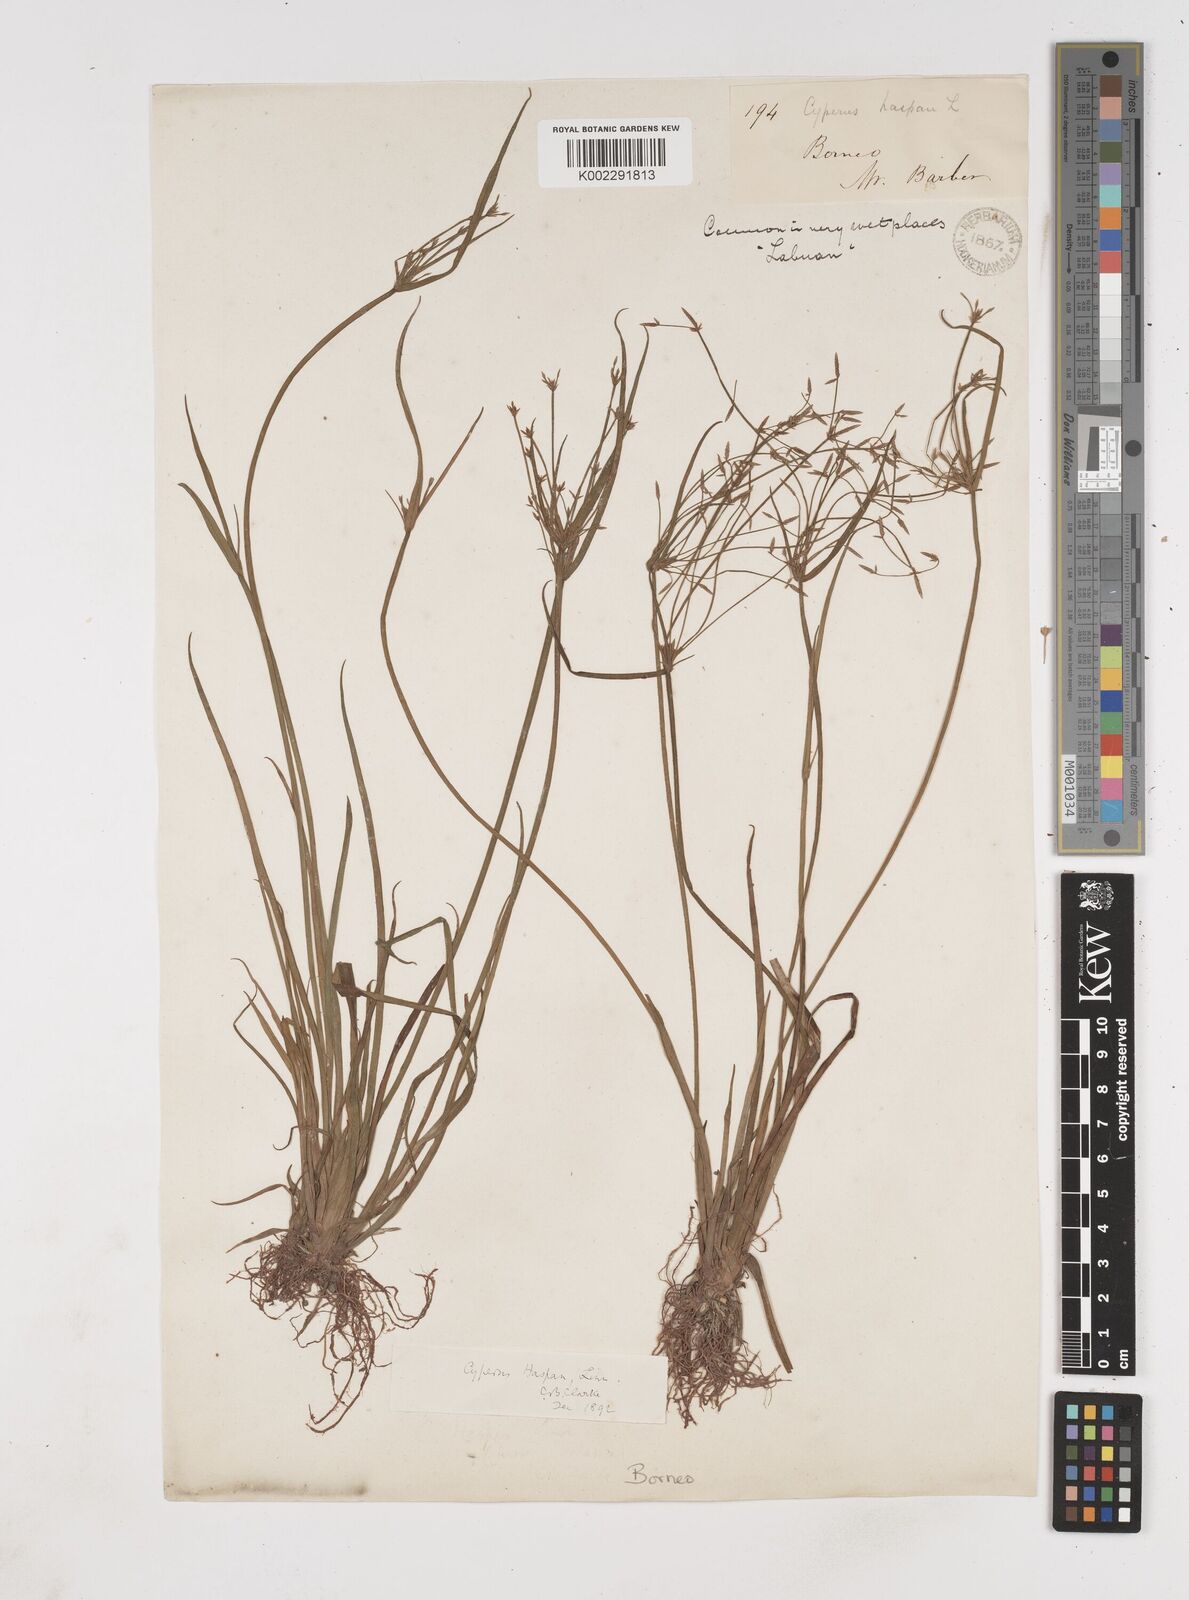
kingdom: Plantae
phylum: Tracheophyta
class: Liliopsida
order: Poales
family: Cyperaceae
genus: Cyperus
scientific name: Cyperus haspan
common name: Haspan flatsedge
